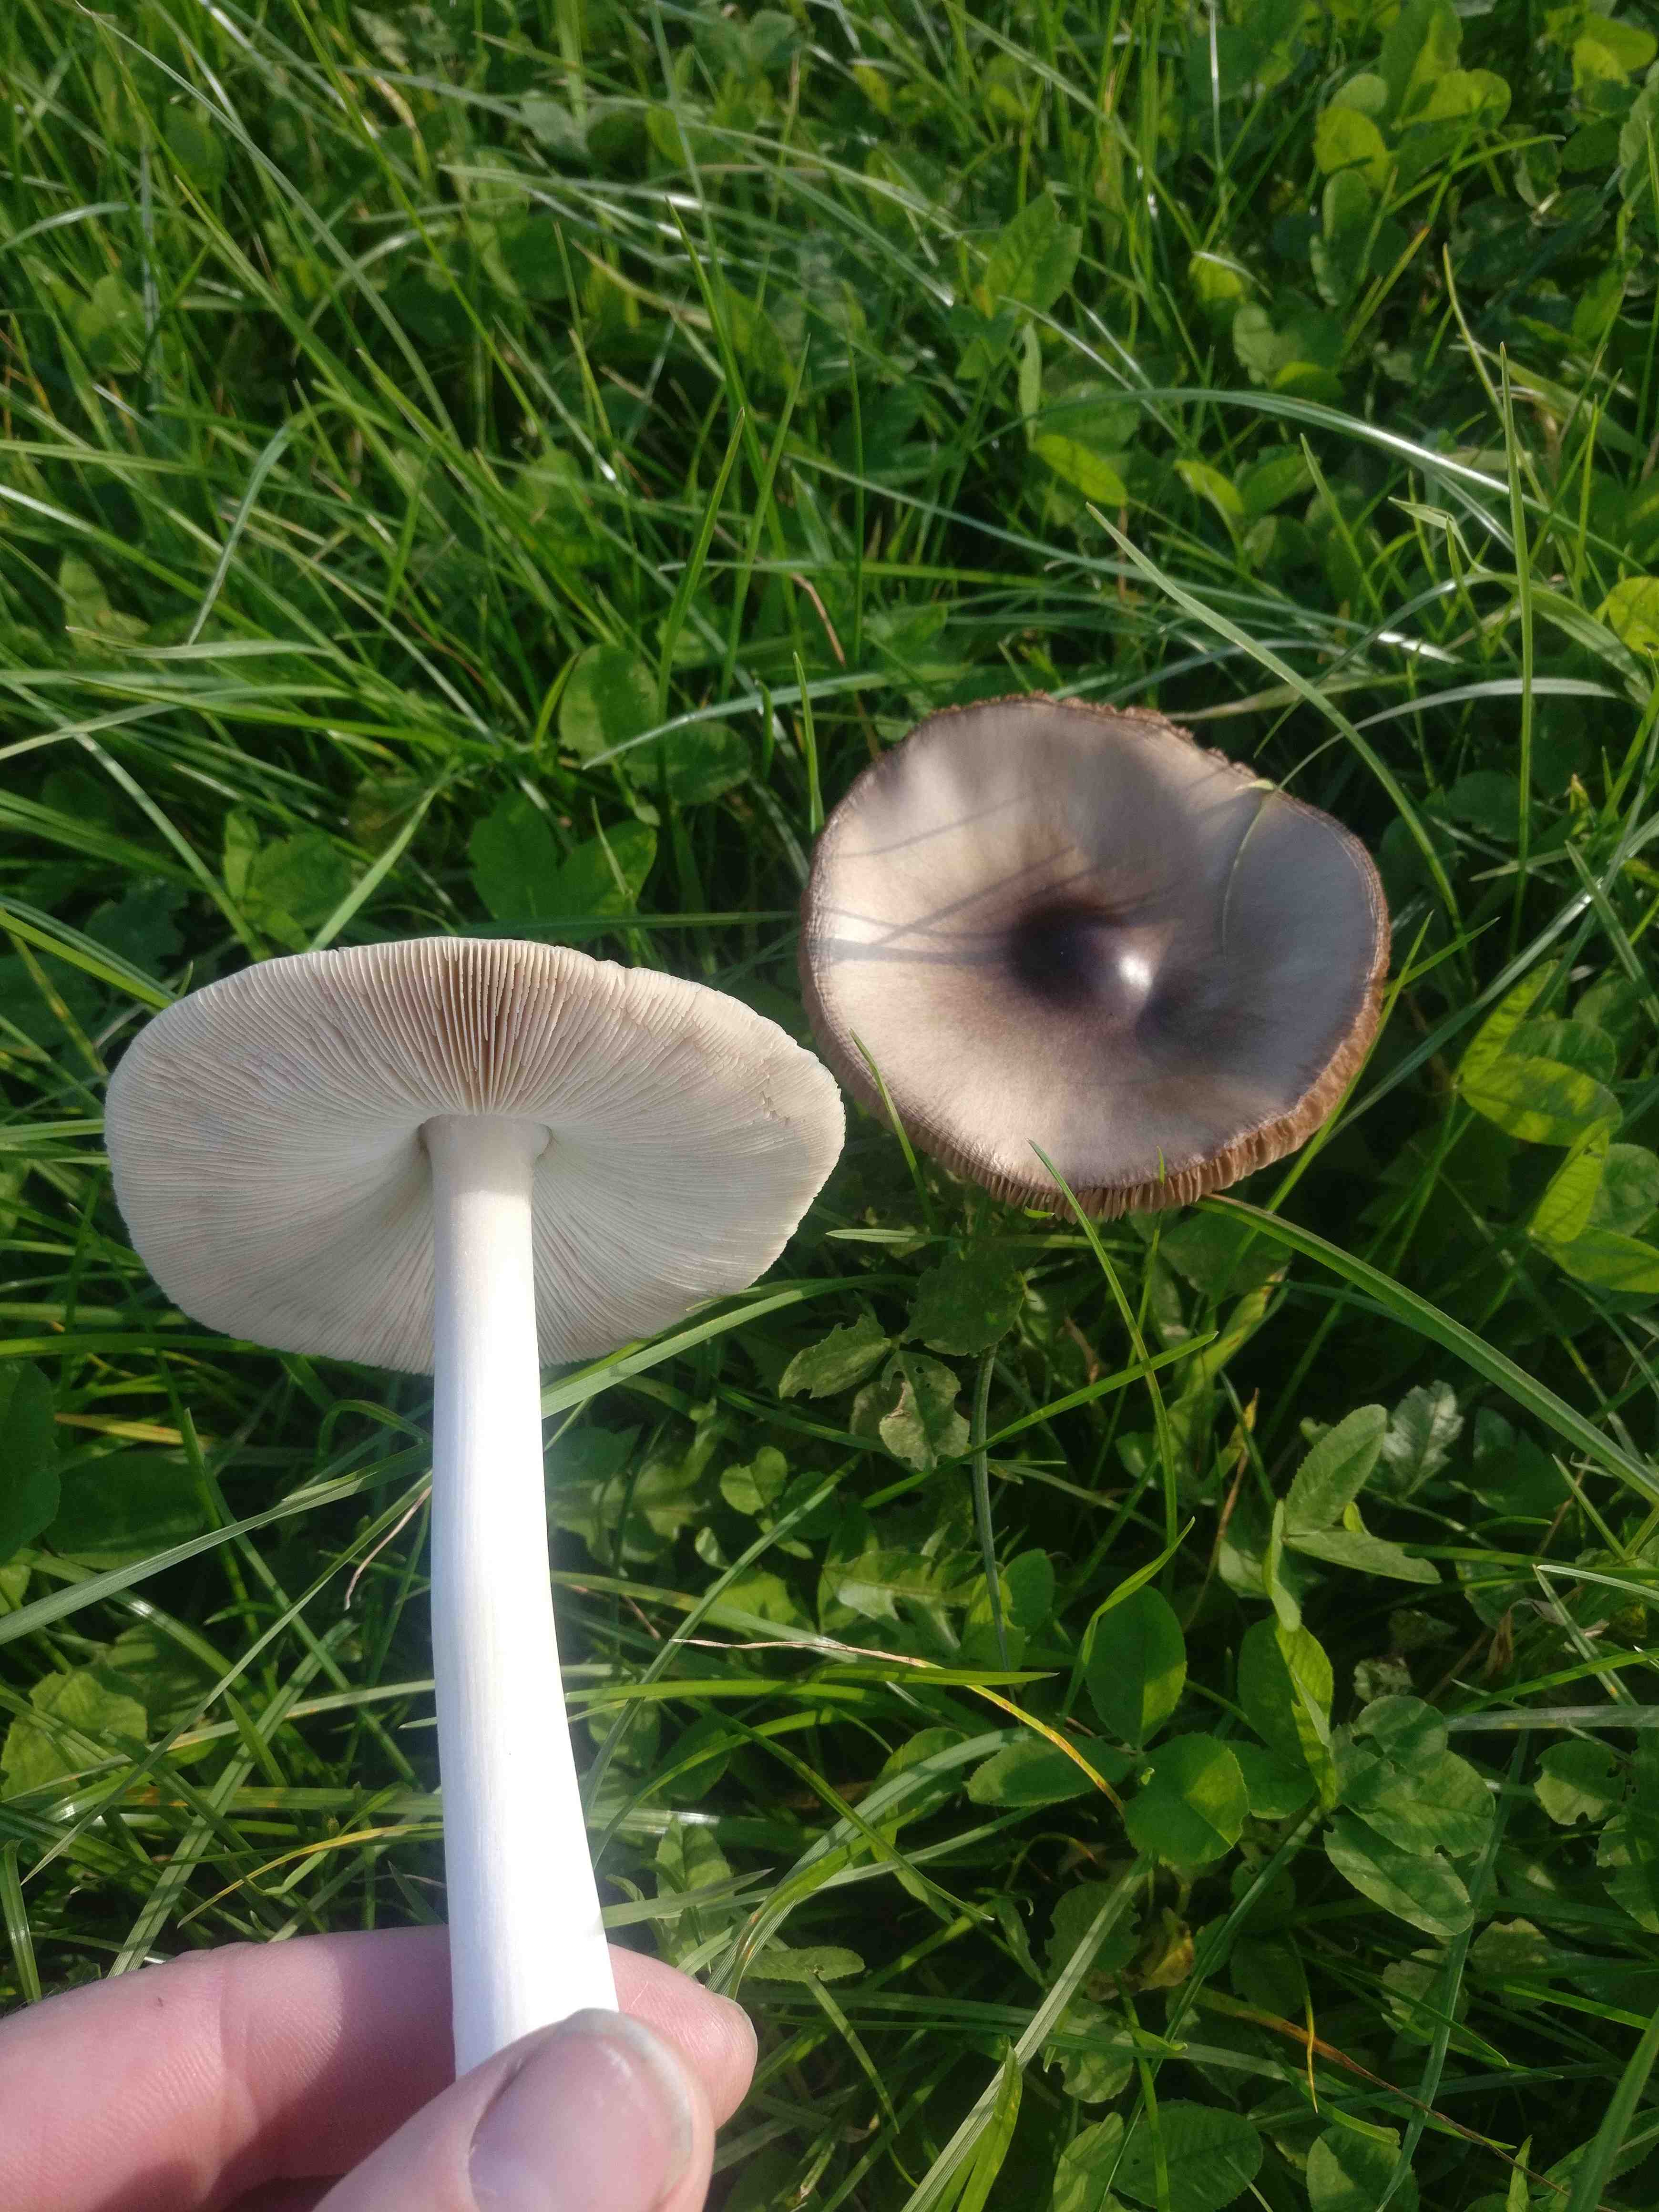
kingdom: Fungi
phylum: Basidiomycota
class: Agaricomycetes
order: Agaricales
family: Pluteaceae
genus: Volvopluteus
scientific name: Volvopluteus gloiocephalus
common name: høj posesvamp
